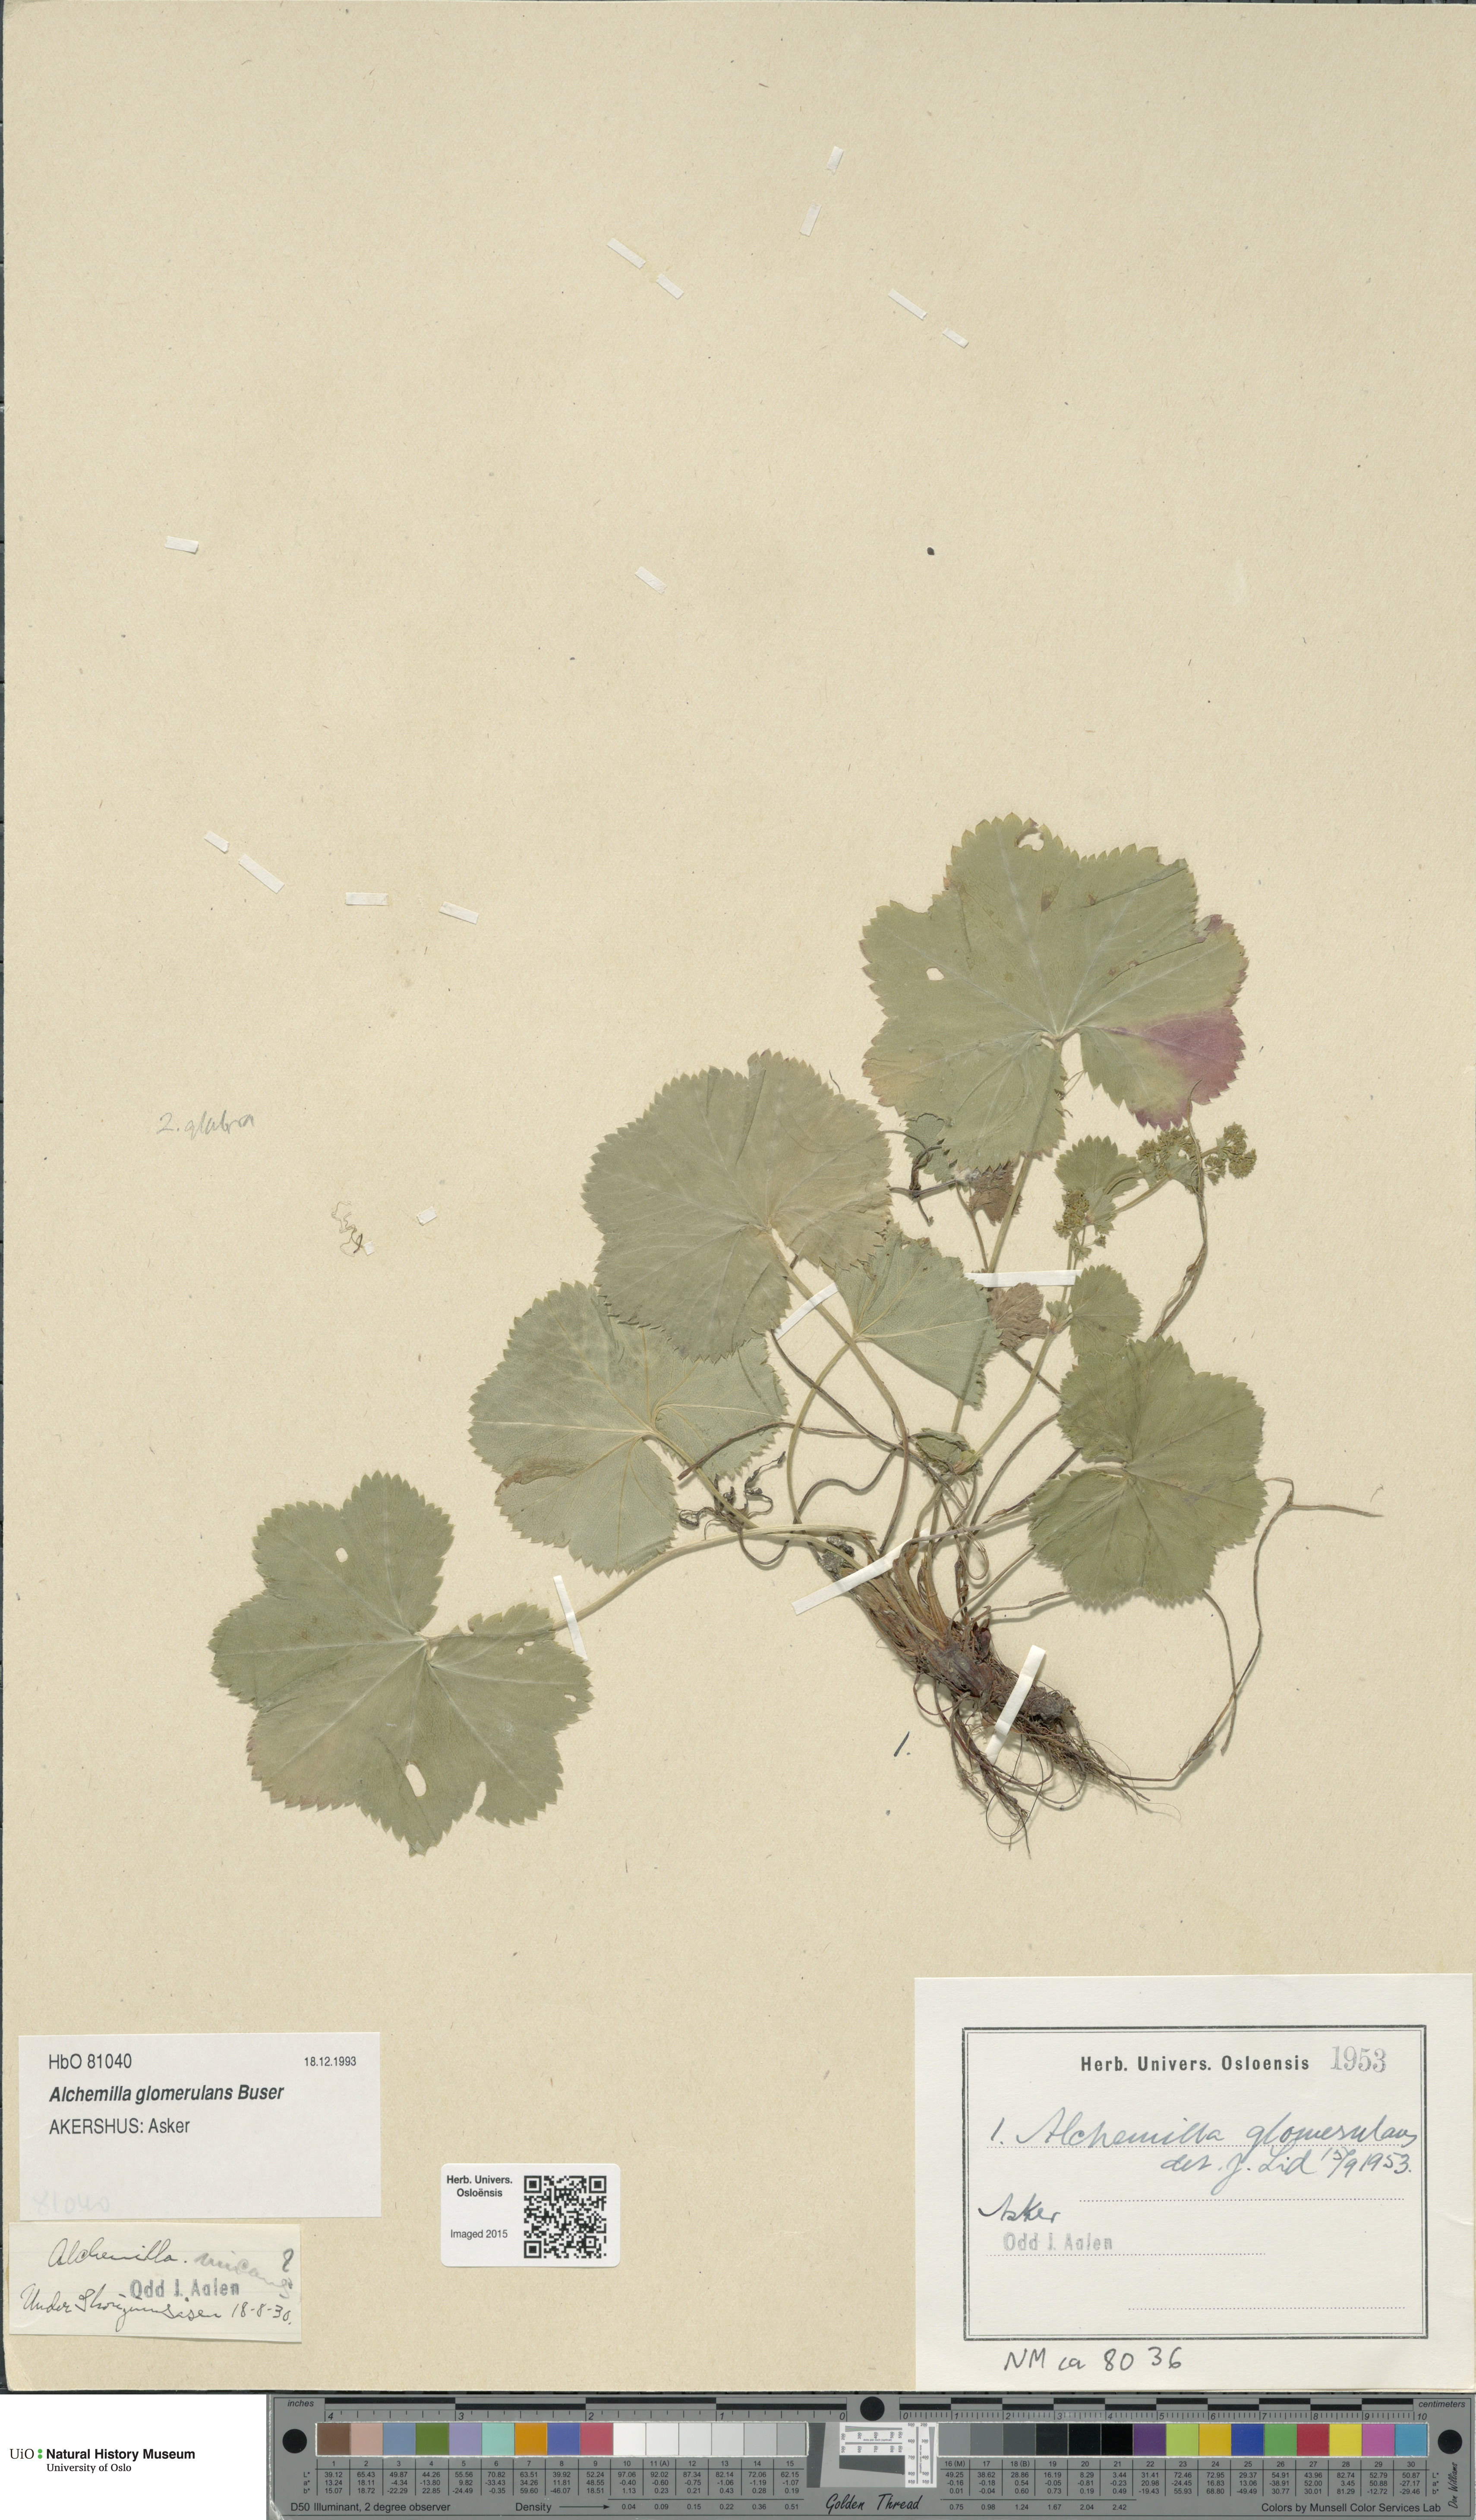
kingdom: Plantae
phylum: Tracheophyta
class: Magnoliopsida
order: Rosales
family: Rosaceae
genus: Alchemilla
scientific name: Alchemilla glomerulans
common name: Clustered lady's mantle
